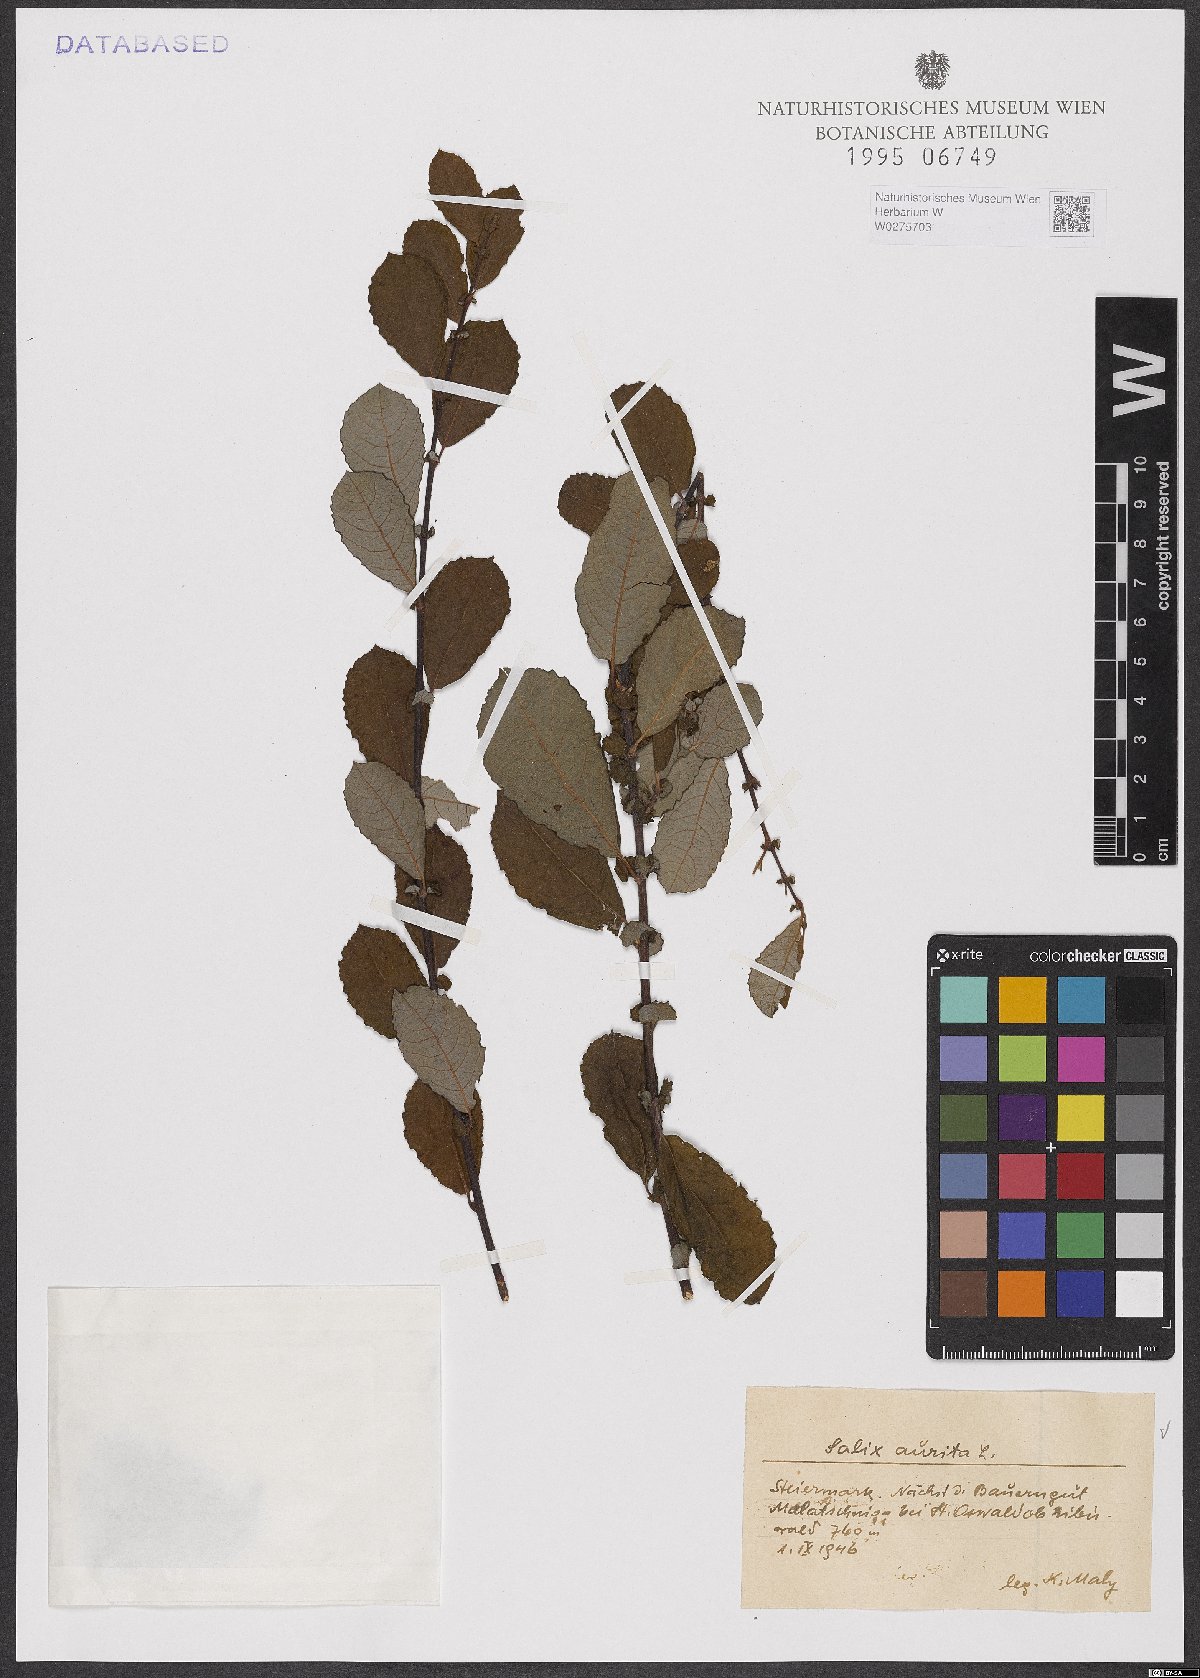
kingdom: Plantae
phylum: Tracheophyta
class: Magnoliopsida
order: Malpighiales
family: Salicaceae
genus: Salix
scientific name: Salix aurita
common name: Eared willow
